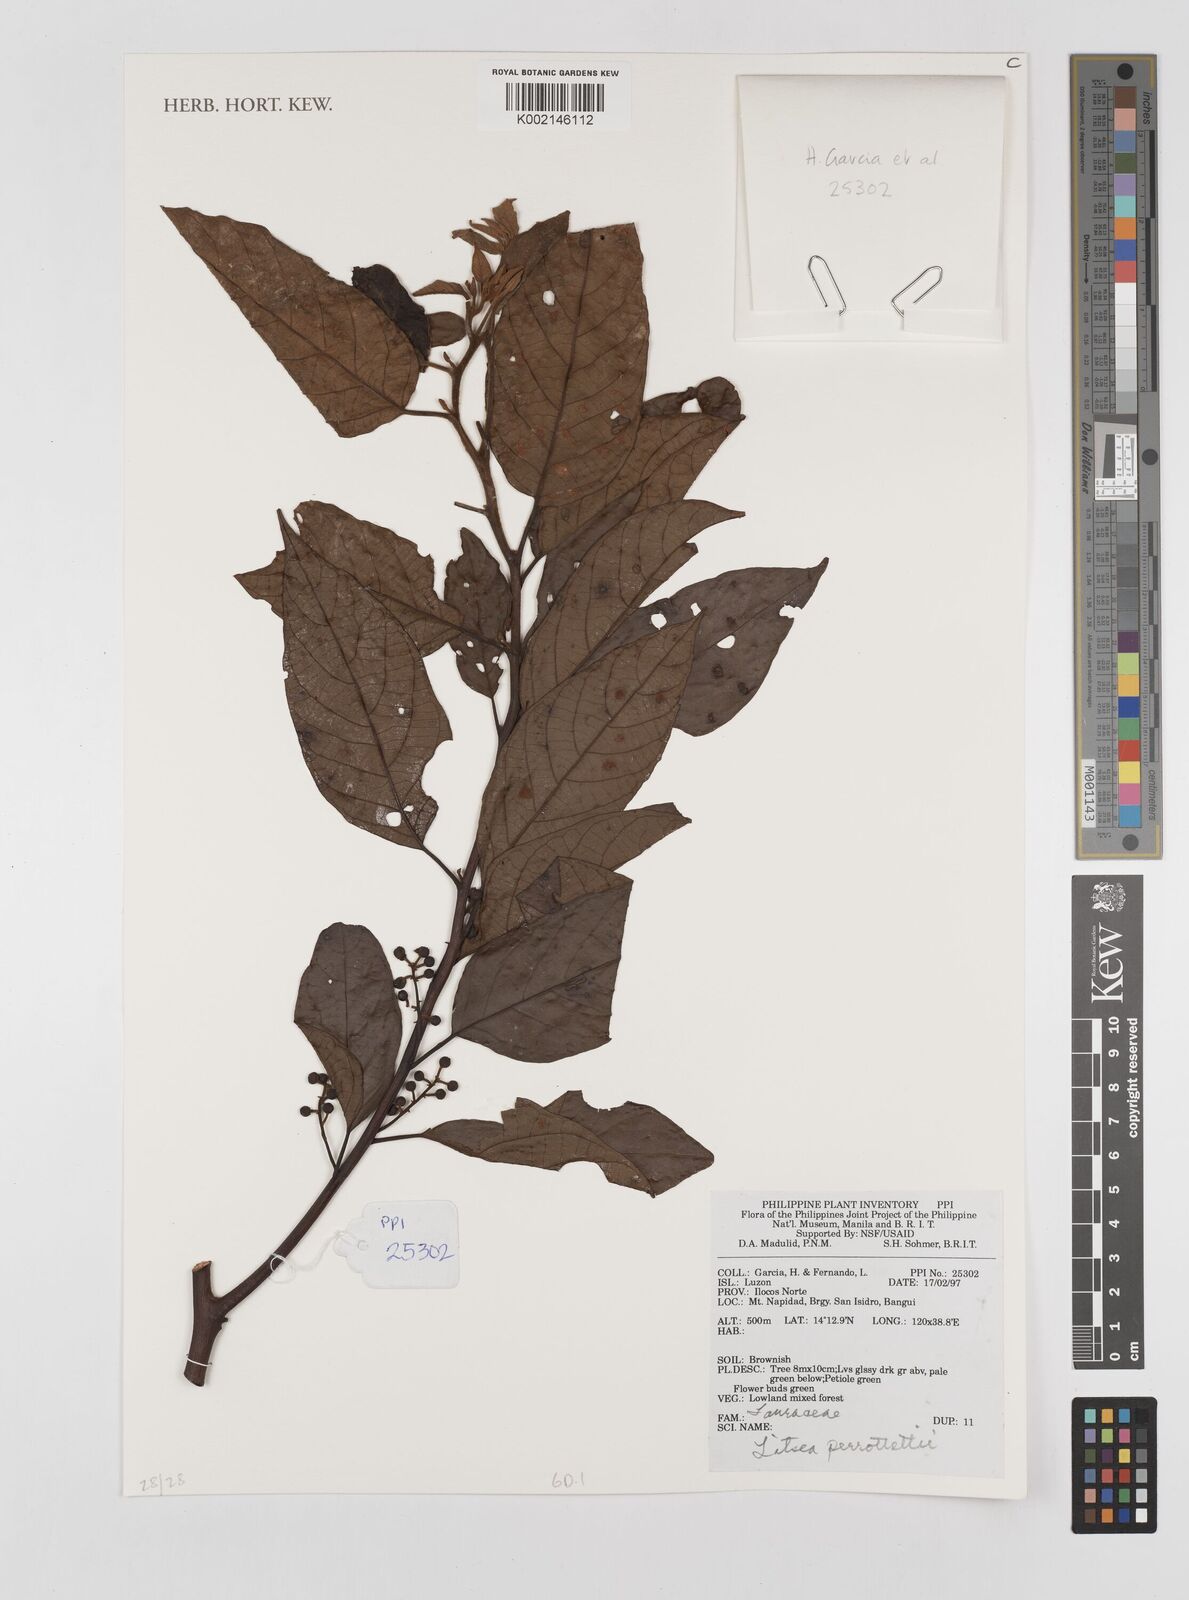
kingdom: Plantae
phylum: Tracheophyta
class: Magnoliopsida
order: Laurales
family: Lauraceae
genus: Litsea
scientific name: Litsea cordata
